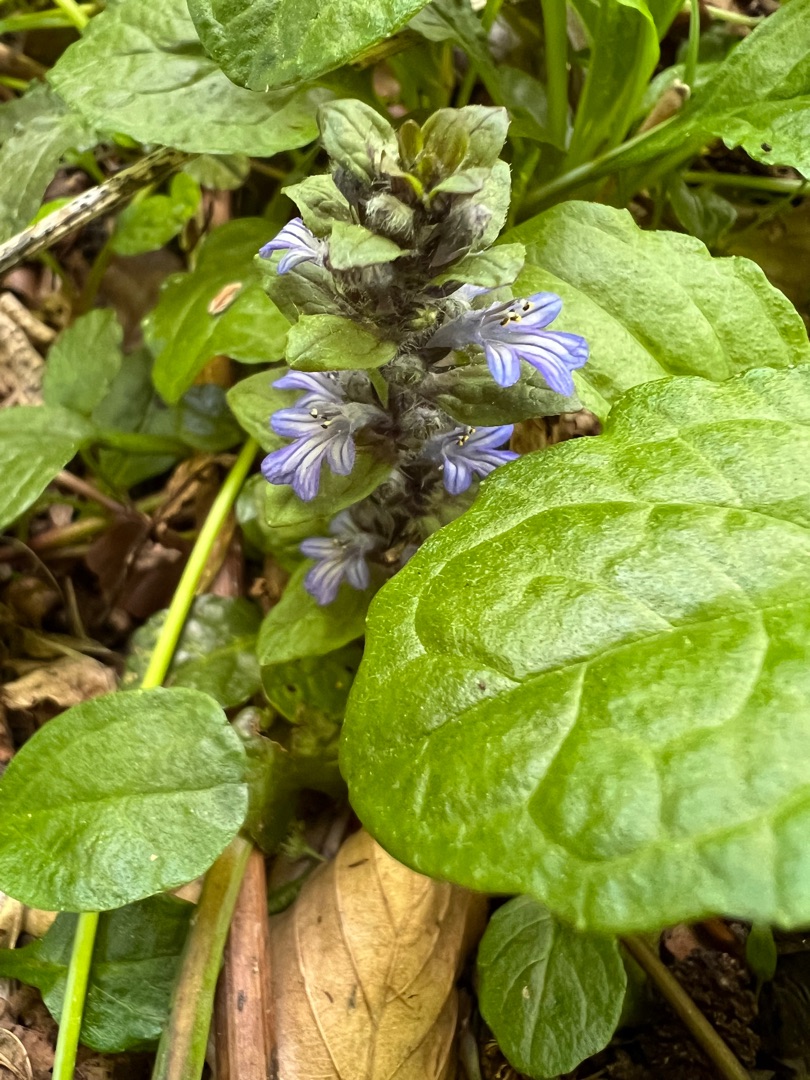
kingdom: Plantae
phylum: Tracheophyta
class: Magnoliopsida
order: Lamiales
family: Lamiaceae
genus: Ajuga
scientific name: Ajuga reptans
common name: Krybende læbeløs
